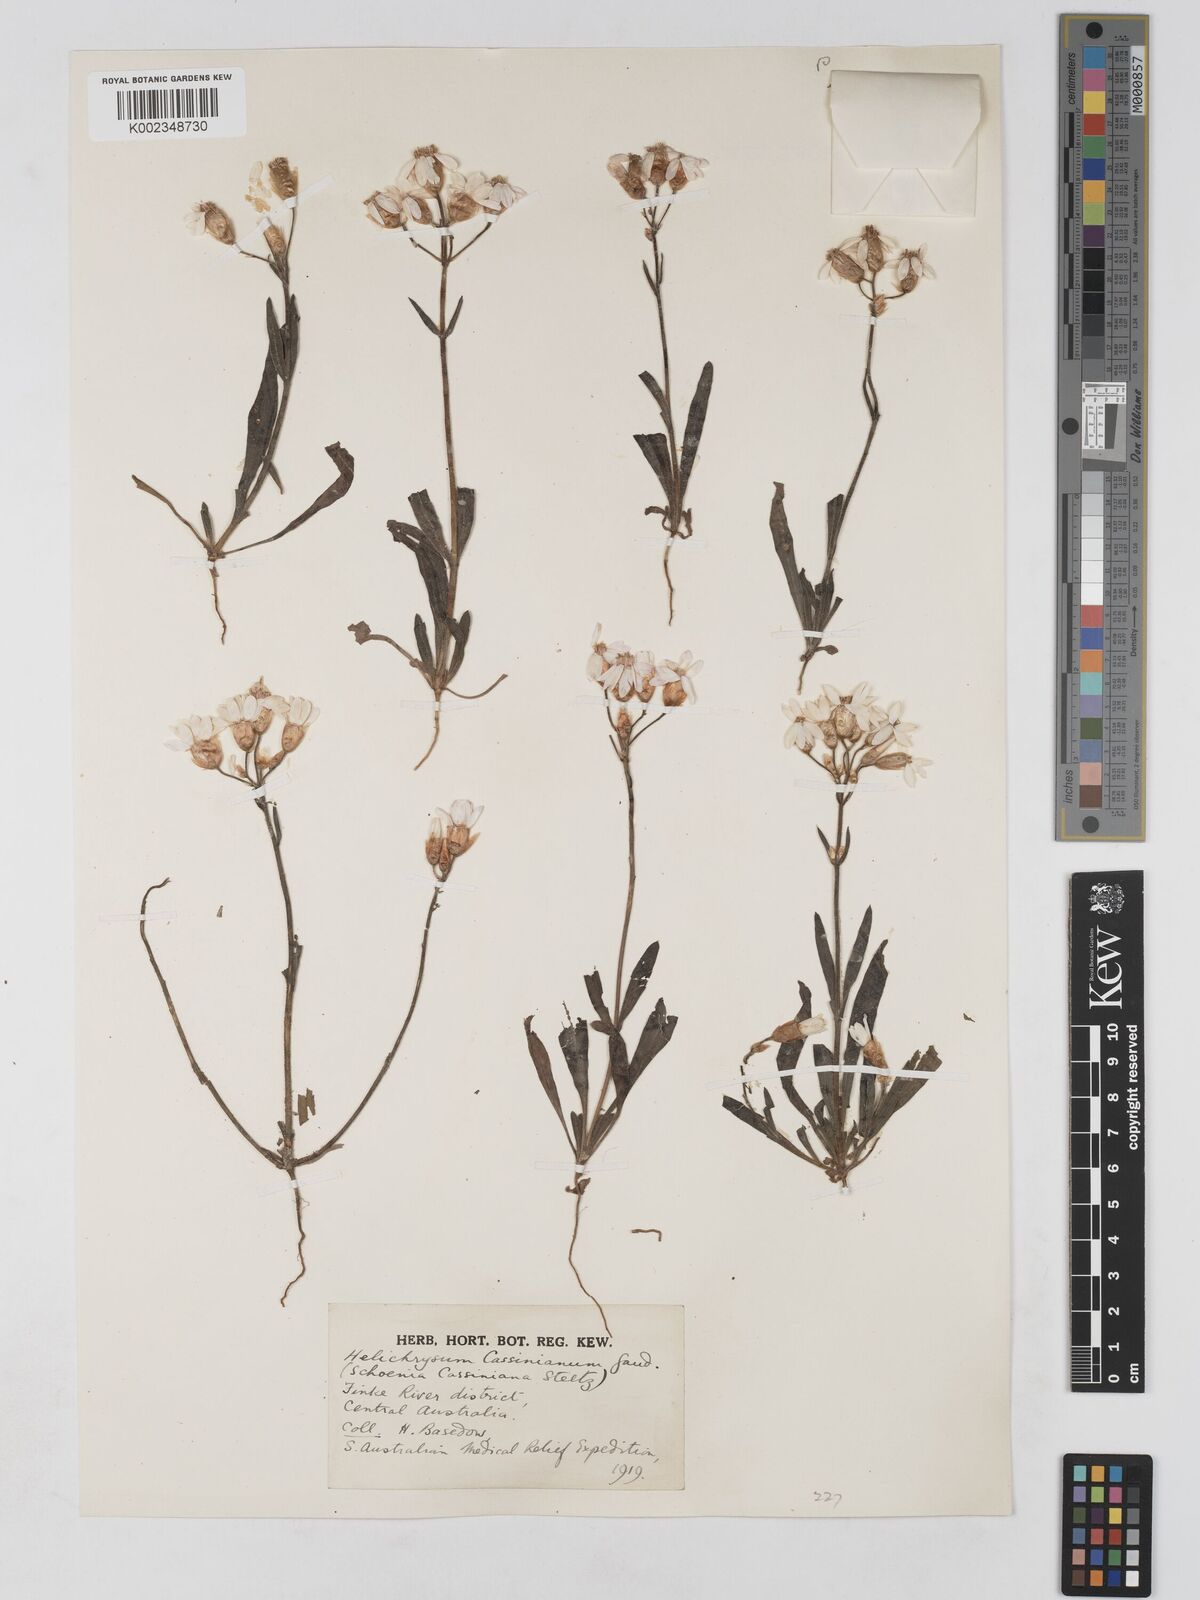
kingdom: Plantae
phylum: Tracheophyta
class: Magnoliopsida
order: Asterales
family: Asteraceae
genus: Schoenia
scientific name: Schoenia cassiniana
